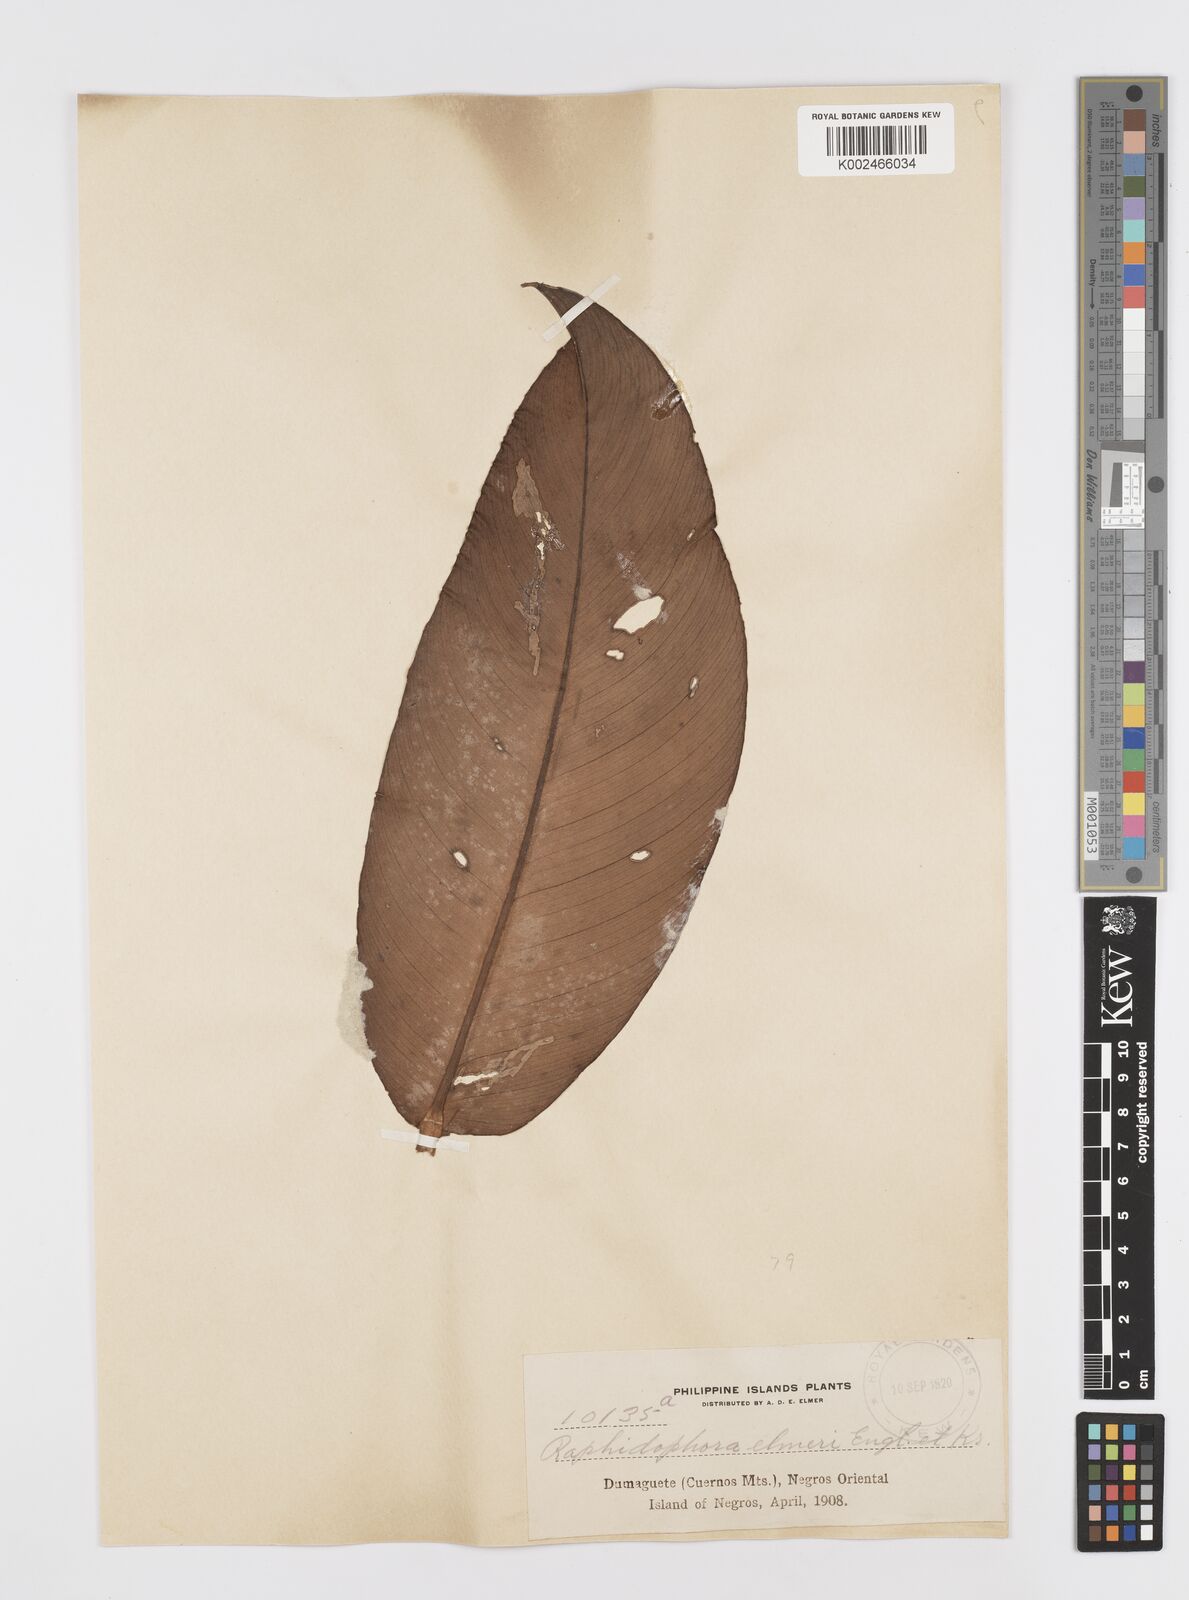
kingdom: Plantae
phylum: Tracheophyta
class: Liliopsida
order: Alismatales
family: Araceae
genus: Rhaphidophora
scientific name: Rhaphidophora elmeri
